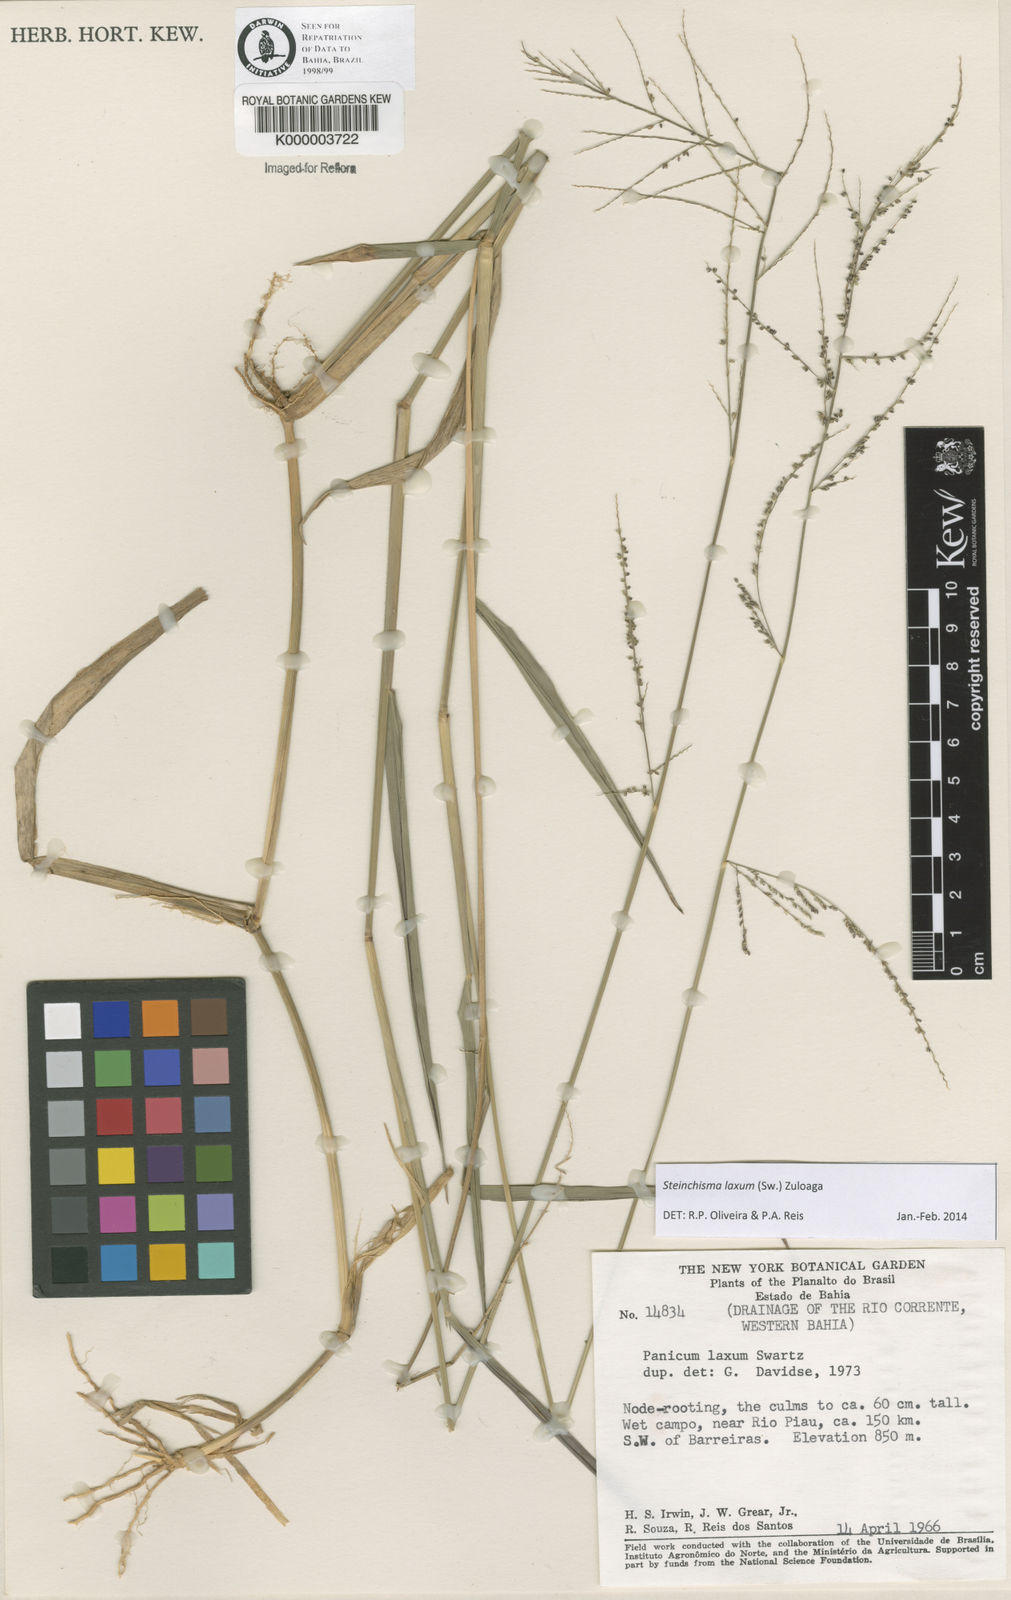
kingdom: Plantae
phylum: Tracheophyta
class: Liliopsida
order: Poales
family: Poaceae
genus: Panicum
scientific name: Panicum
